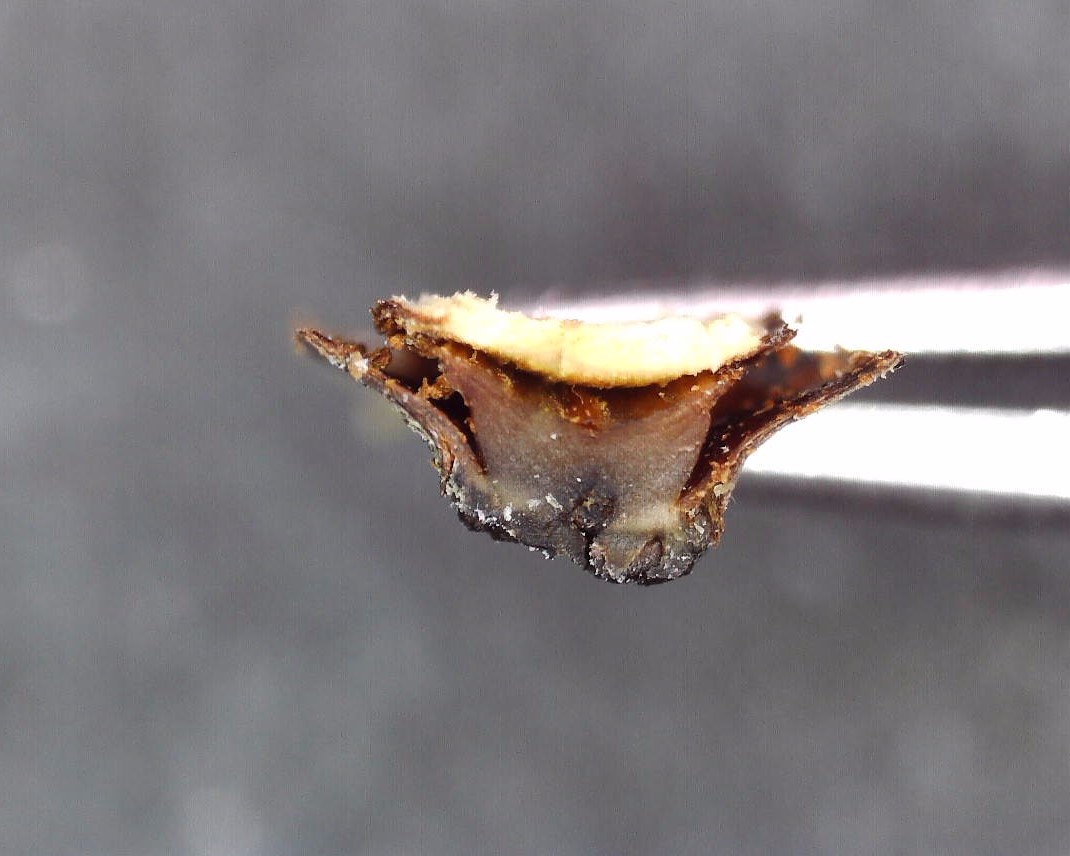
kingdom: Fungi
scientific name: Fungi
